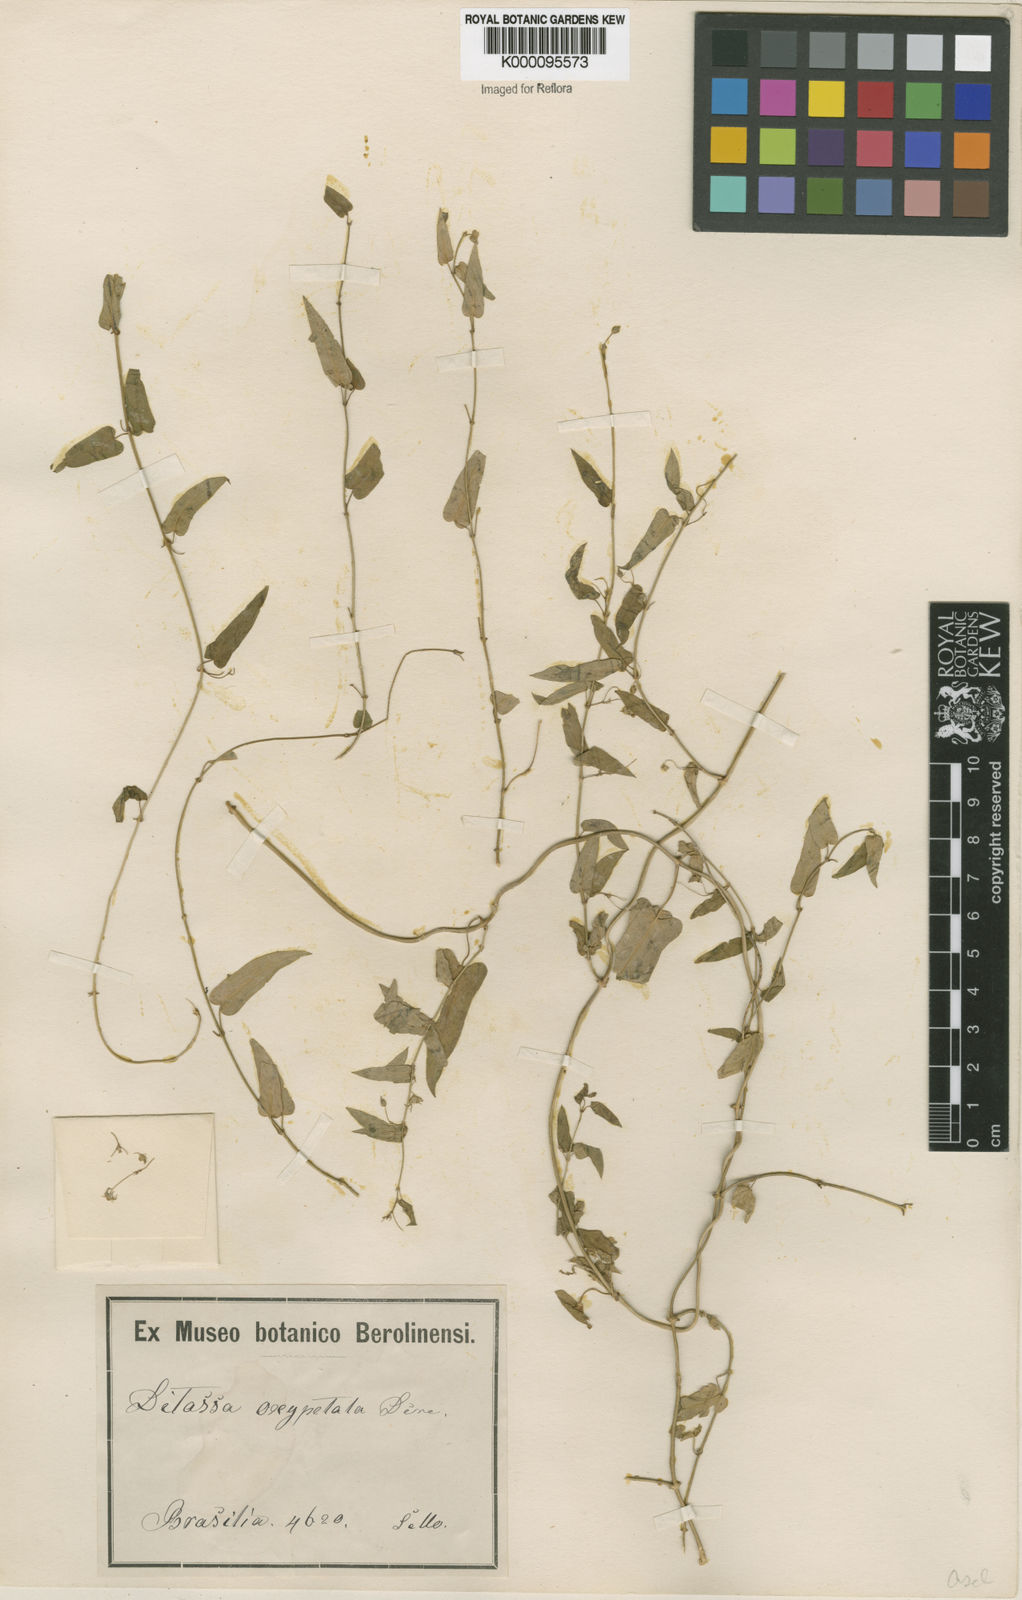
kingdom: Plantae
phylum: Tracheophyta
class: Magnoliopsida
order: Gentianales
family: Apocynaceae
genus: Oxypetalum
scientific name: Oxypetalum megapotamicum
